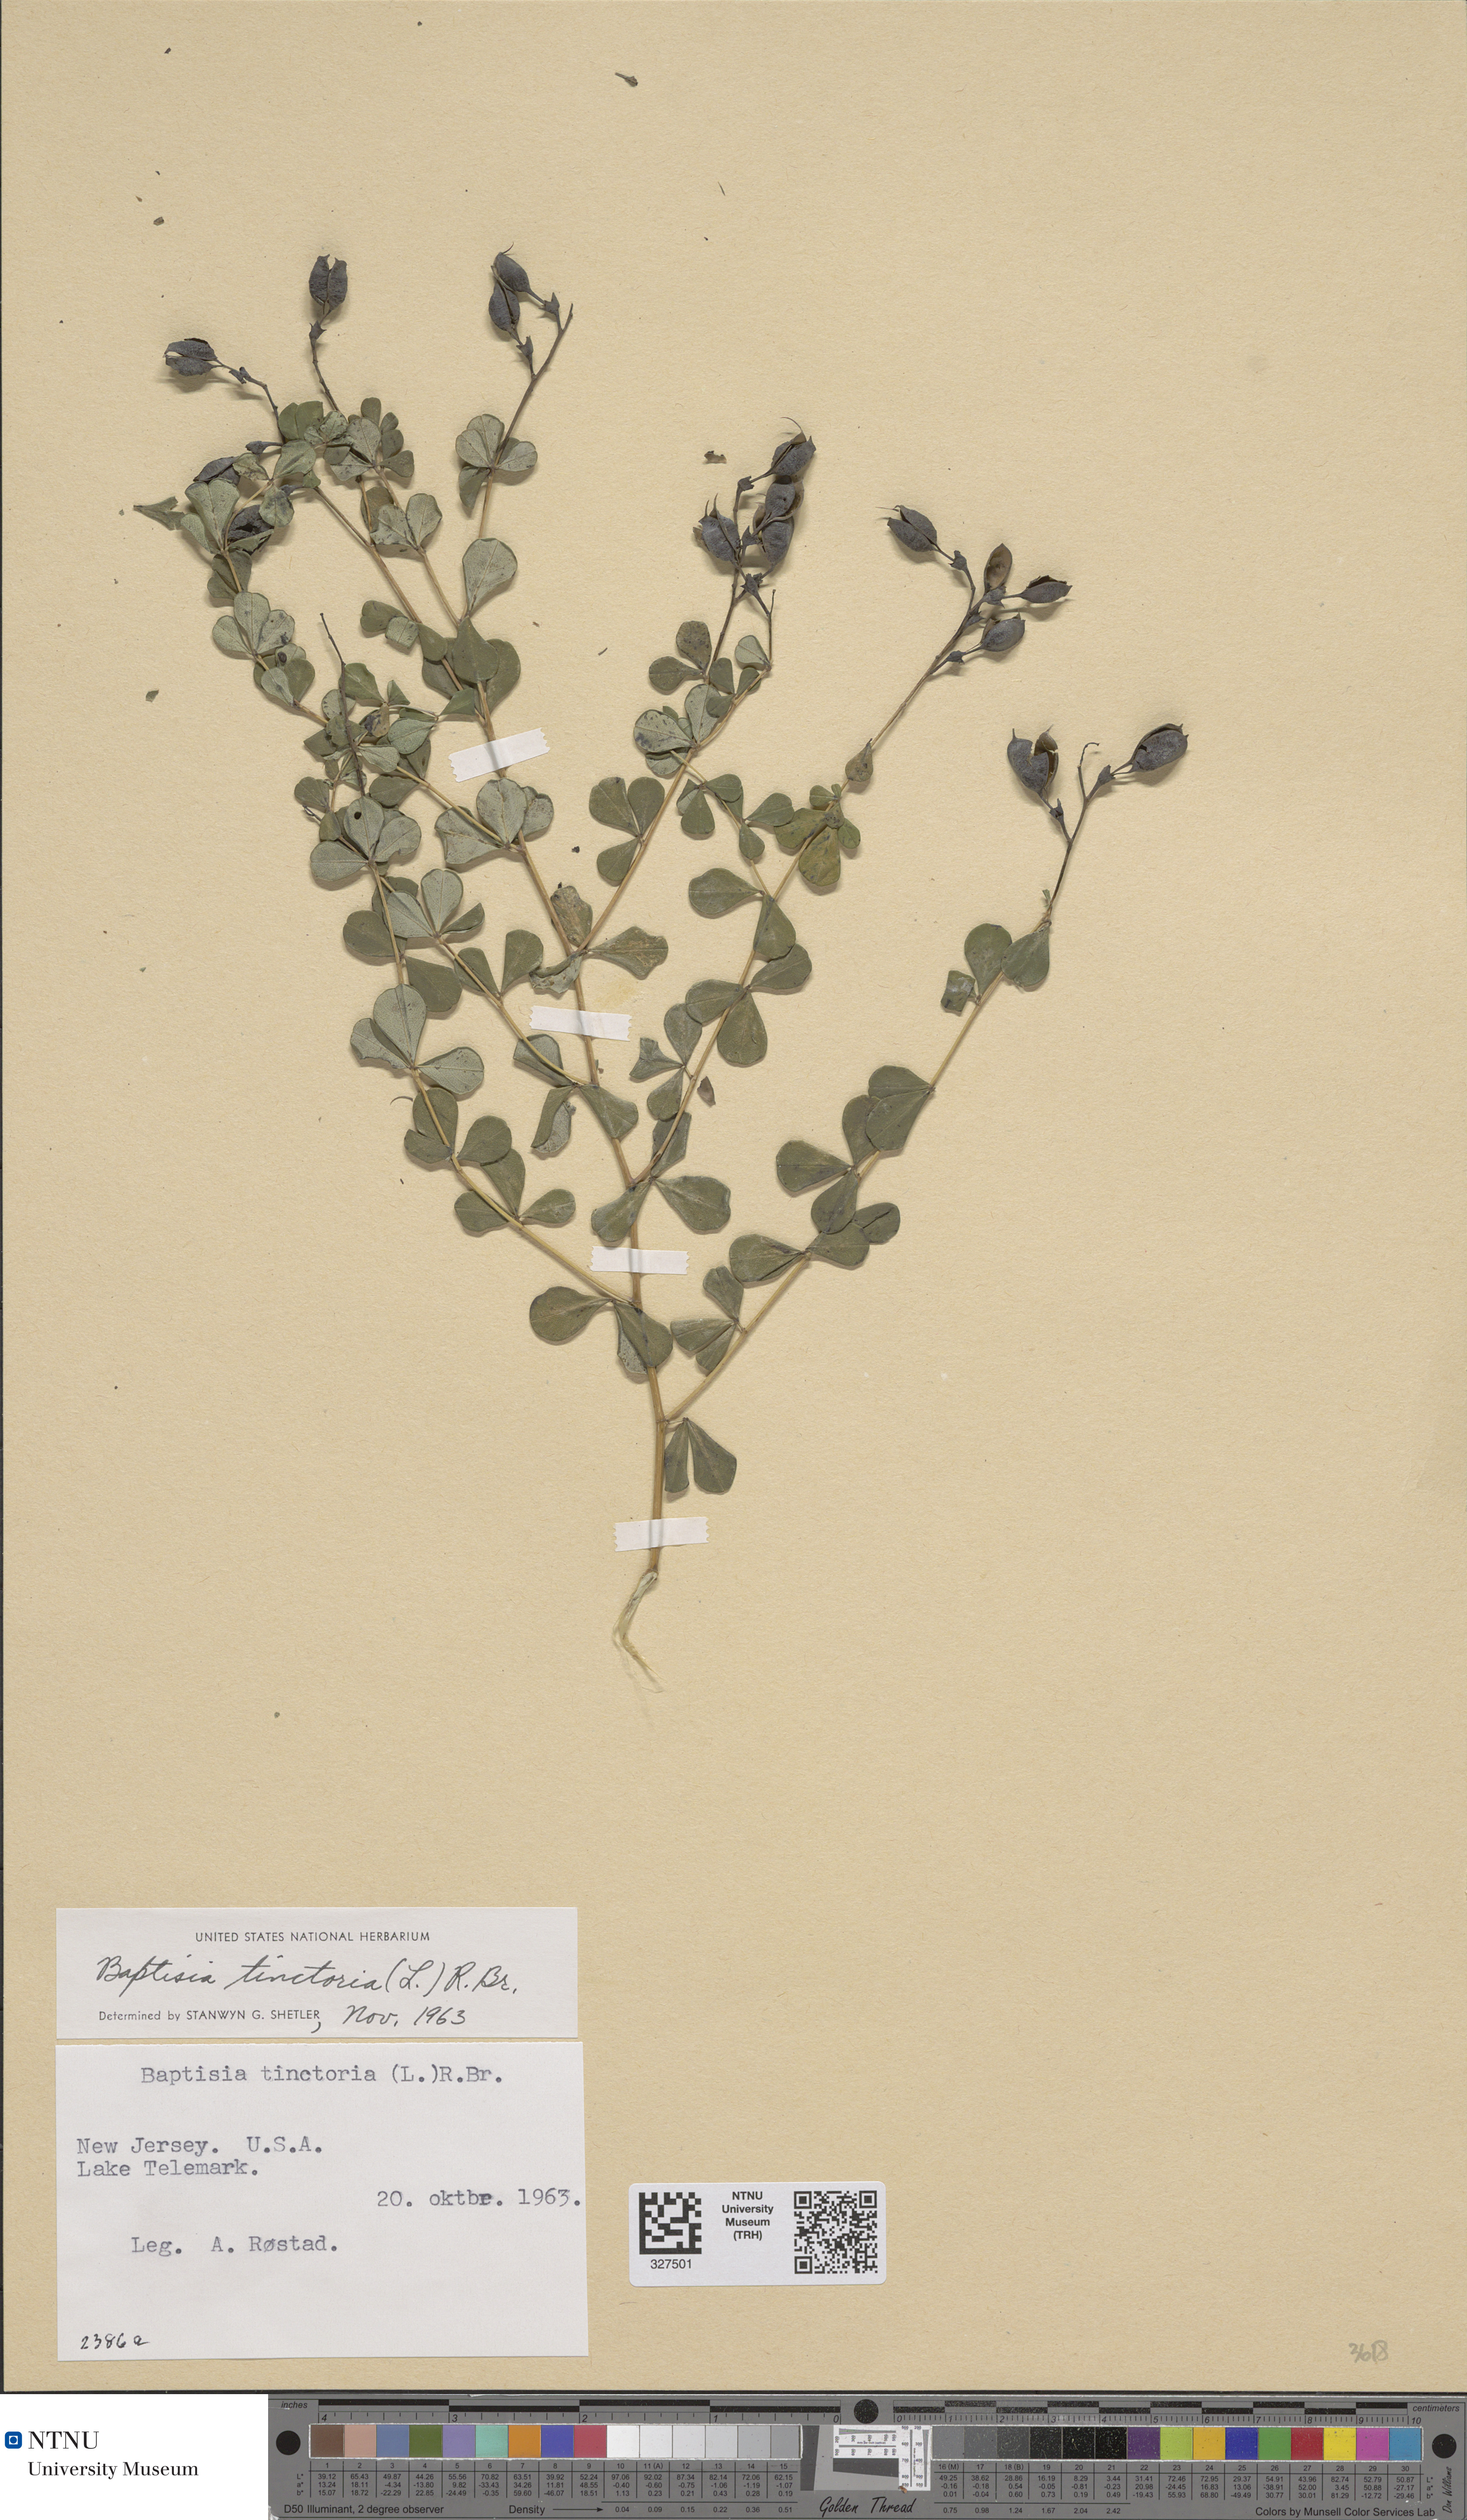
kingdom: Plantae
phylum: Tracheophyta
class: Magnoliopsida
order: Fabales
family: Fabaceae
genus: Baptisia
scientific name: Baptisia tinctoria
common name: Wild indigo
